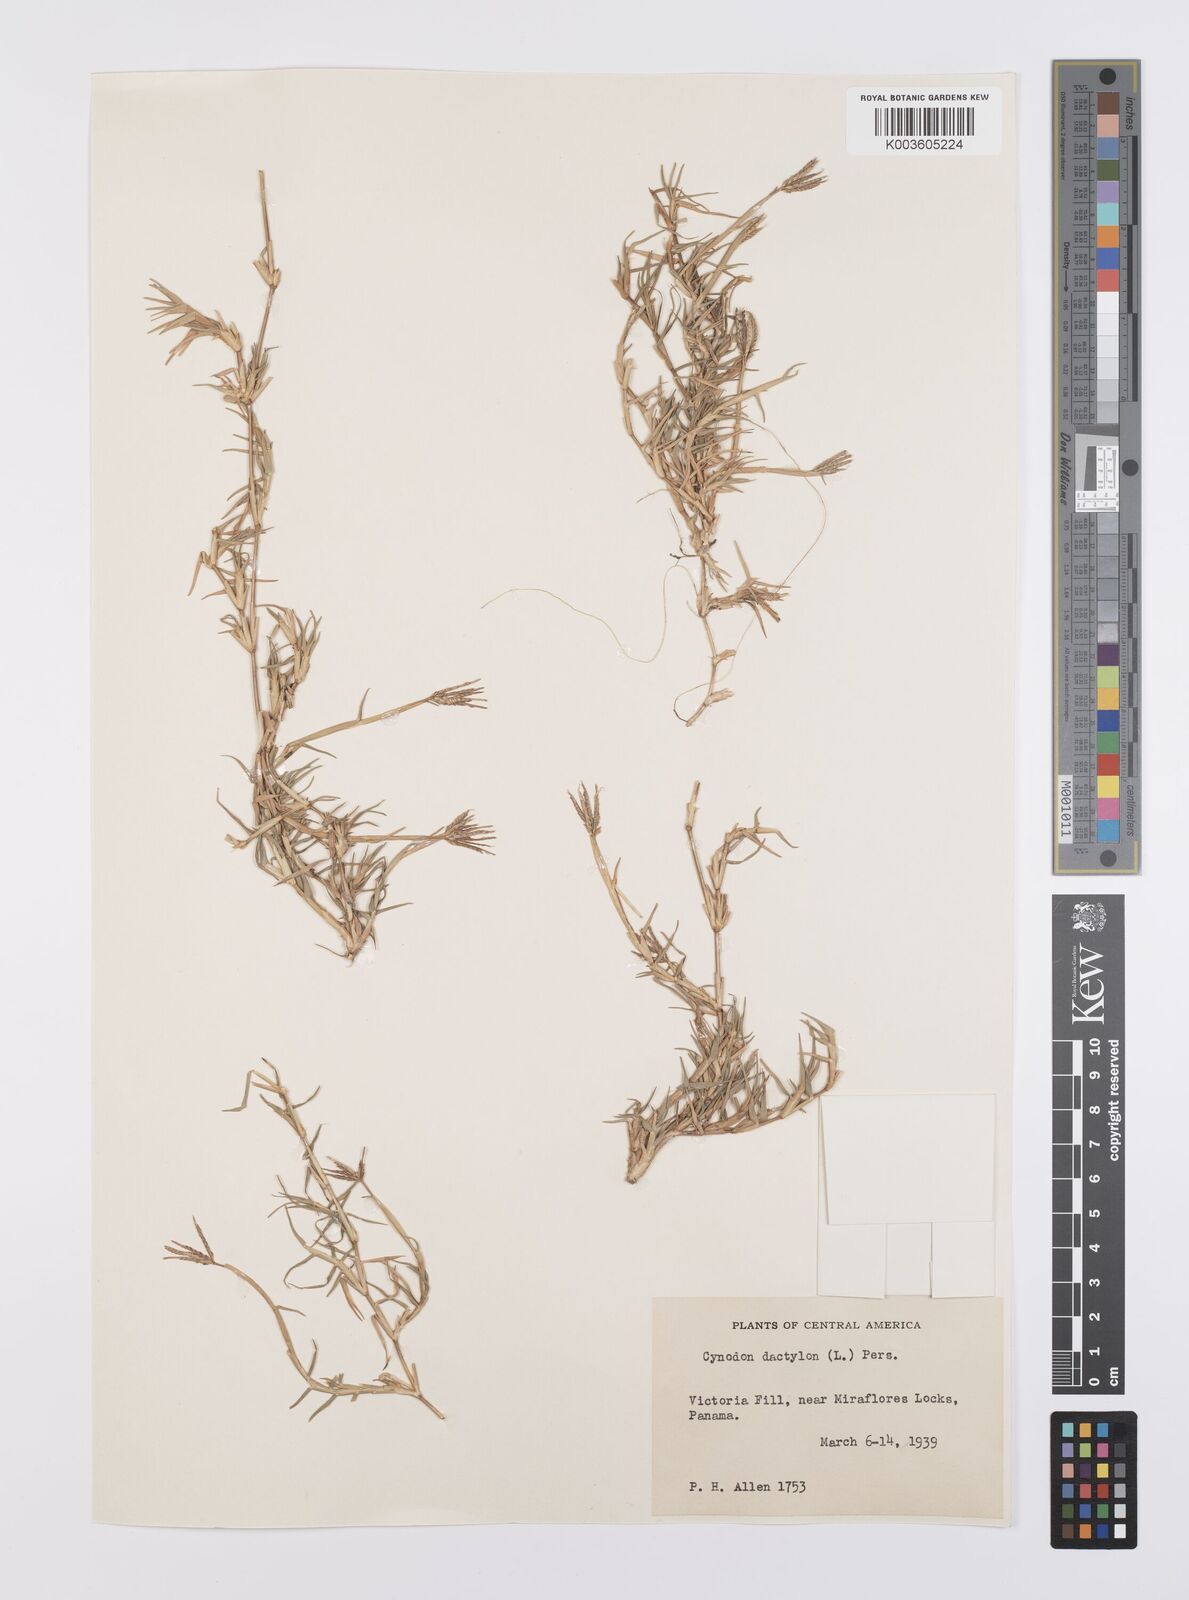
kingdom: Plantae
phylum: Tracheophyta
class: Liliopsida
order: Poales
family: Poaceae
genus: Cynodon
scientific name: Cynodon dactylon
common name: Bermuda grass
